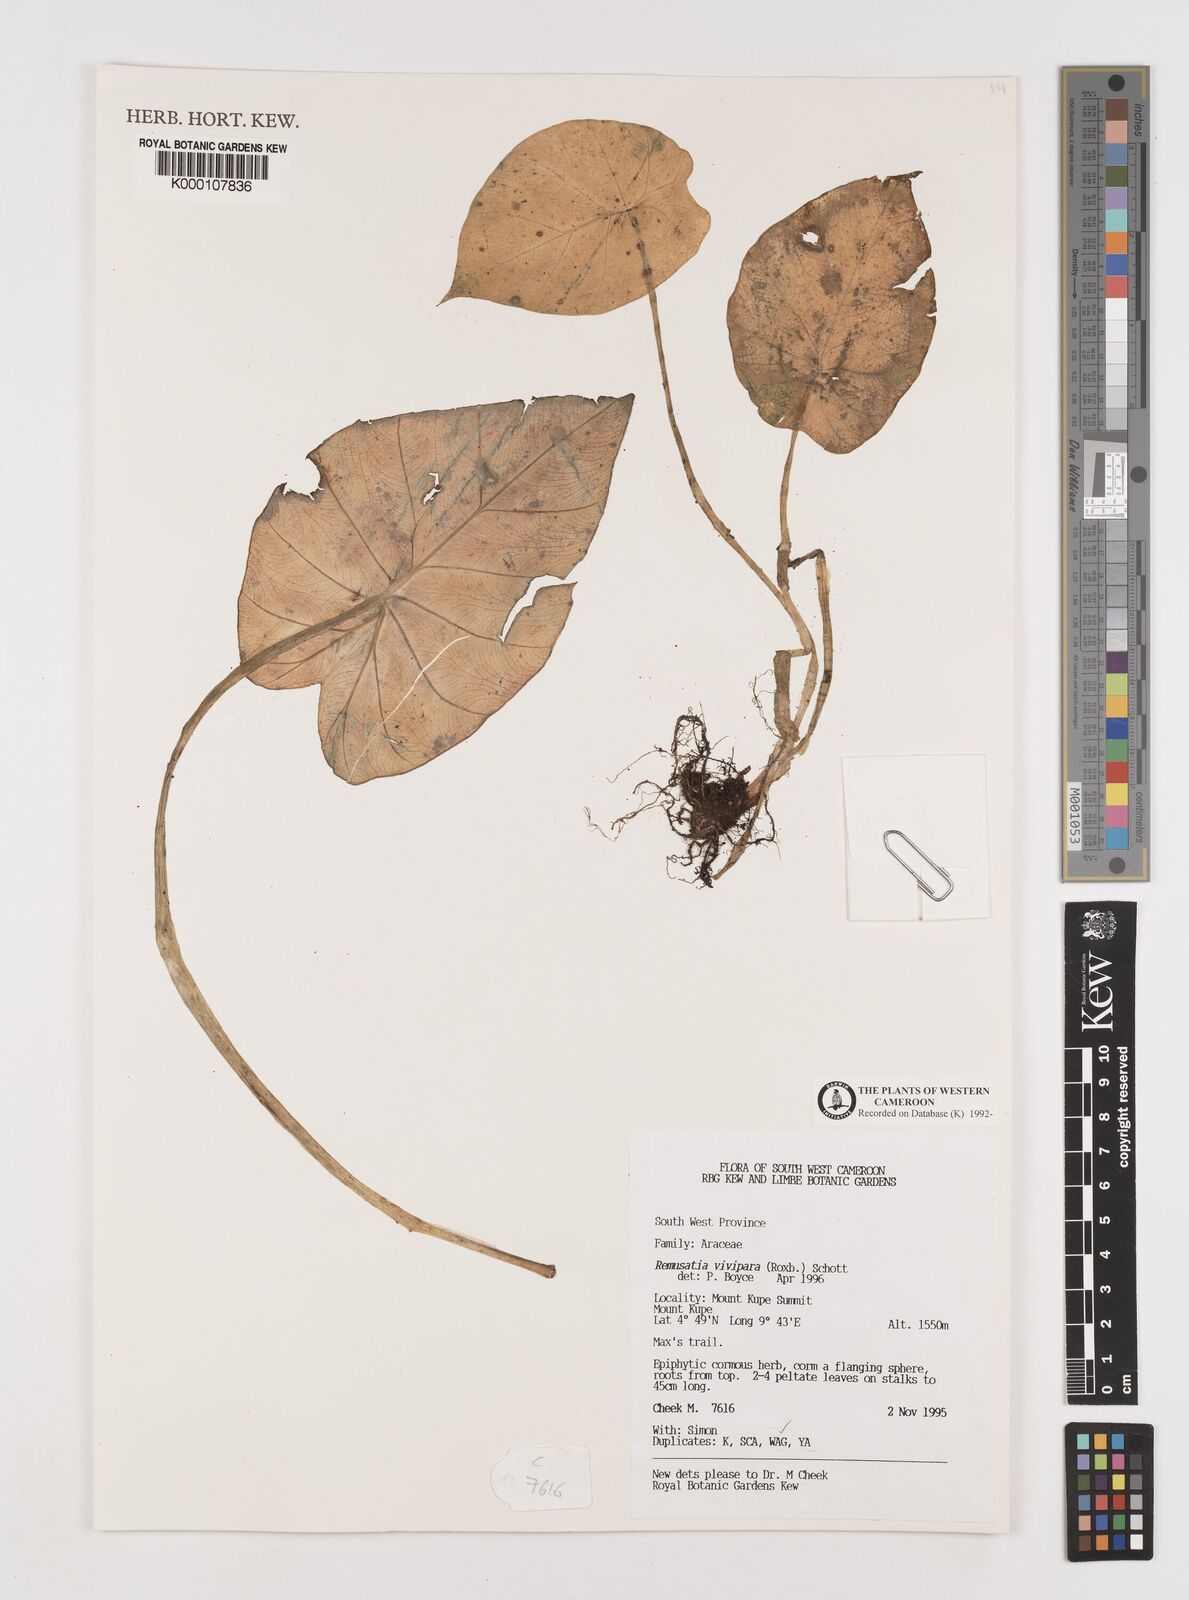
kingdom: Plantae
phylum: Tracheophyta
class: Liliopsida
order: Alismatales
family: Araceae
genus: Remusatia
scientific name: Remusatia vivipara
